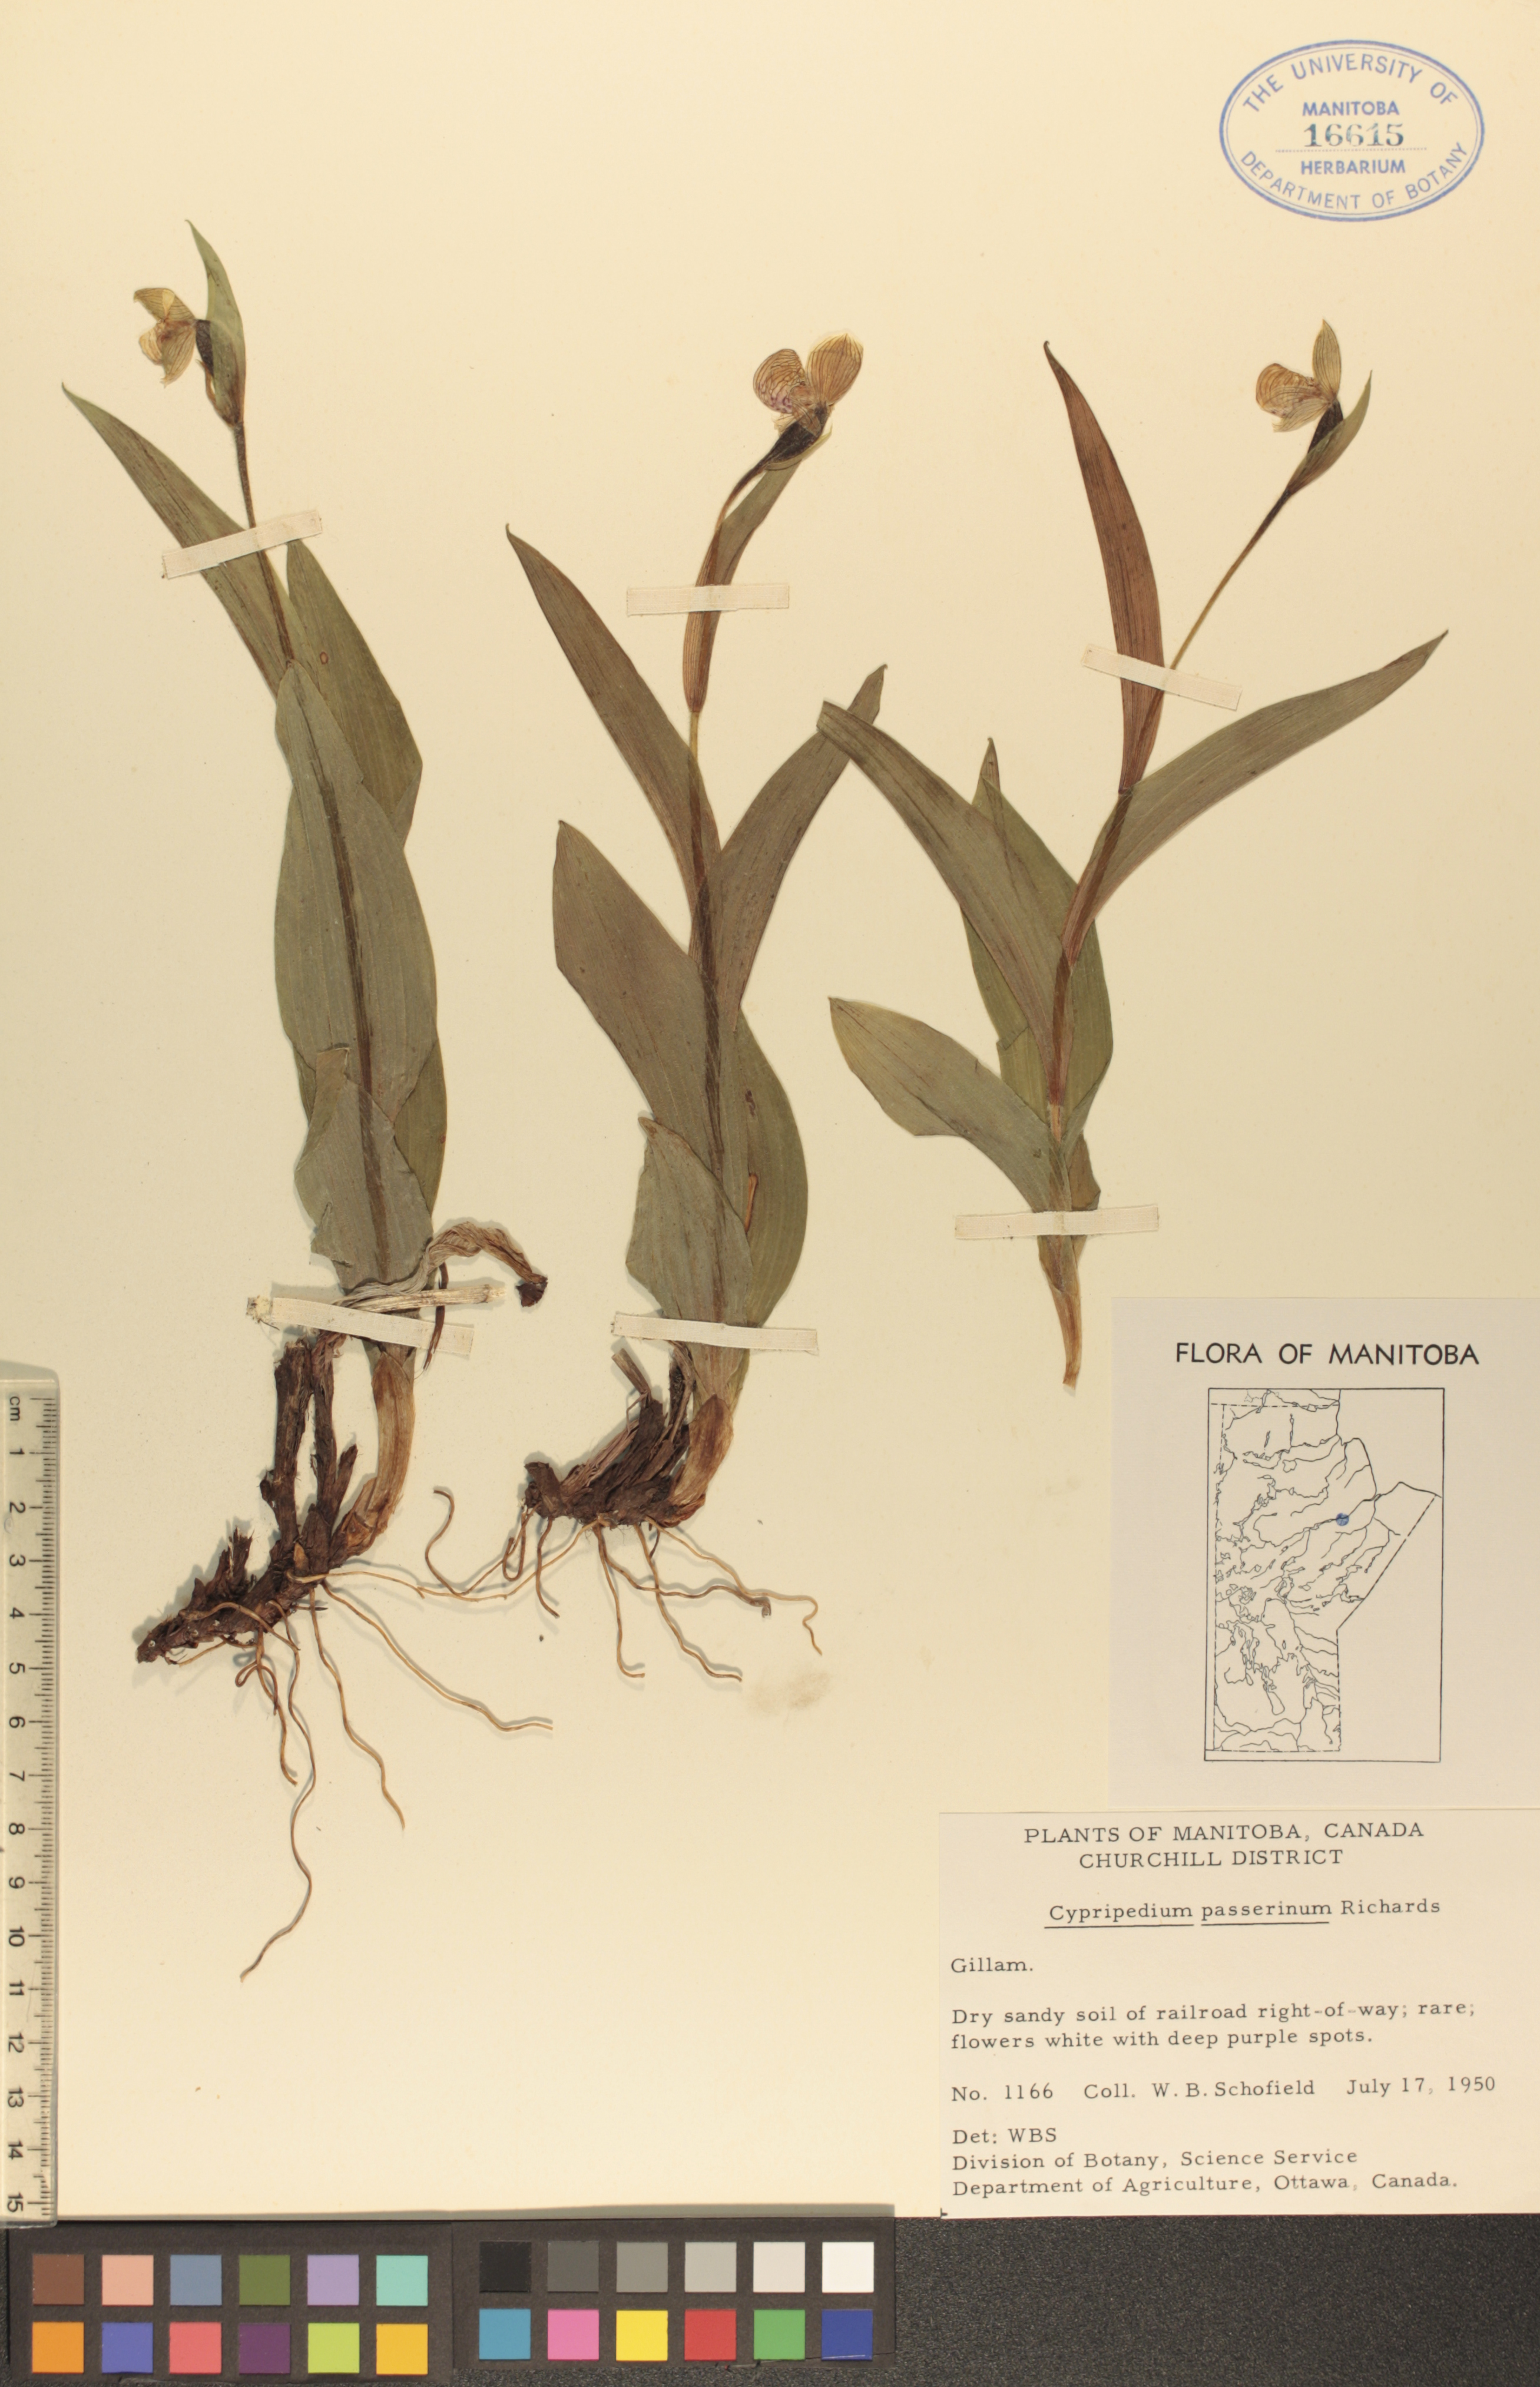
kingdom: Plantae
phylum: Tracheophyta
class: Liliopsida
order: Asparagales
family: Orchidaceae
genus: Cypripedium
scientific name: Cypripedium passerinum
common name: Sparrow's-egg lady's-slipper
